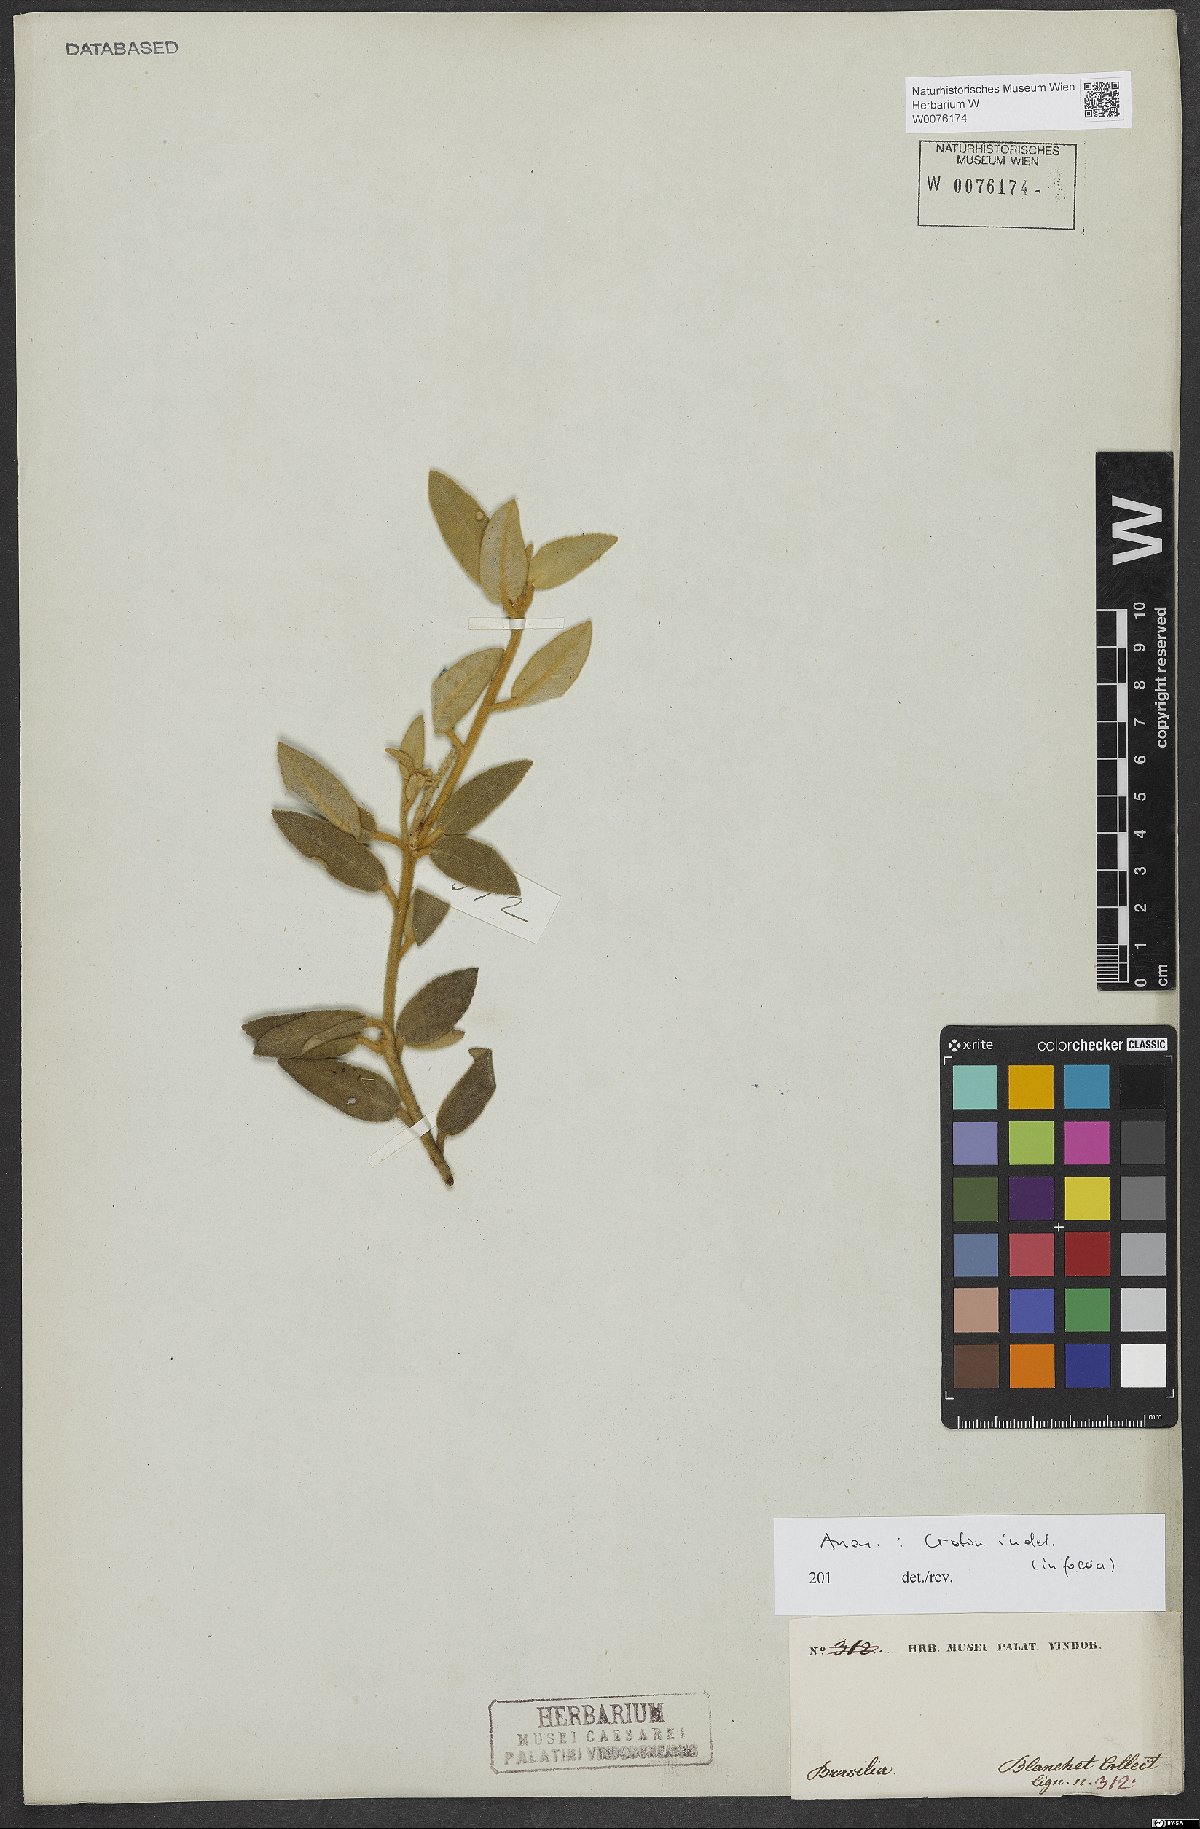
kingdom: Plantae
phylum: Tracheophyta
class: Magnoliopsida
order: Malpighiales
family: Euphorbiaceae
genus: Croton
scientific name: Croton
